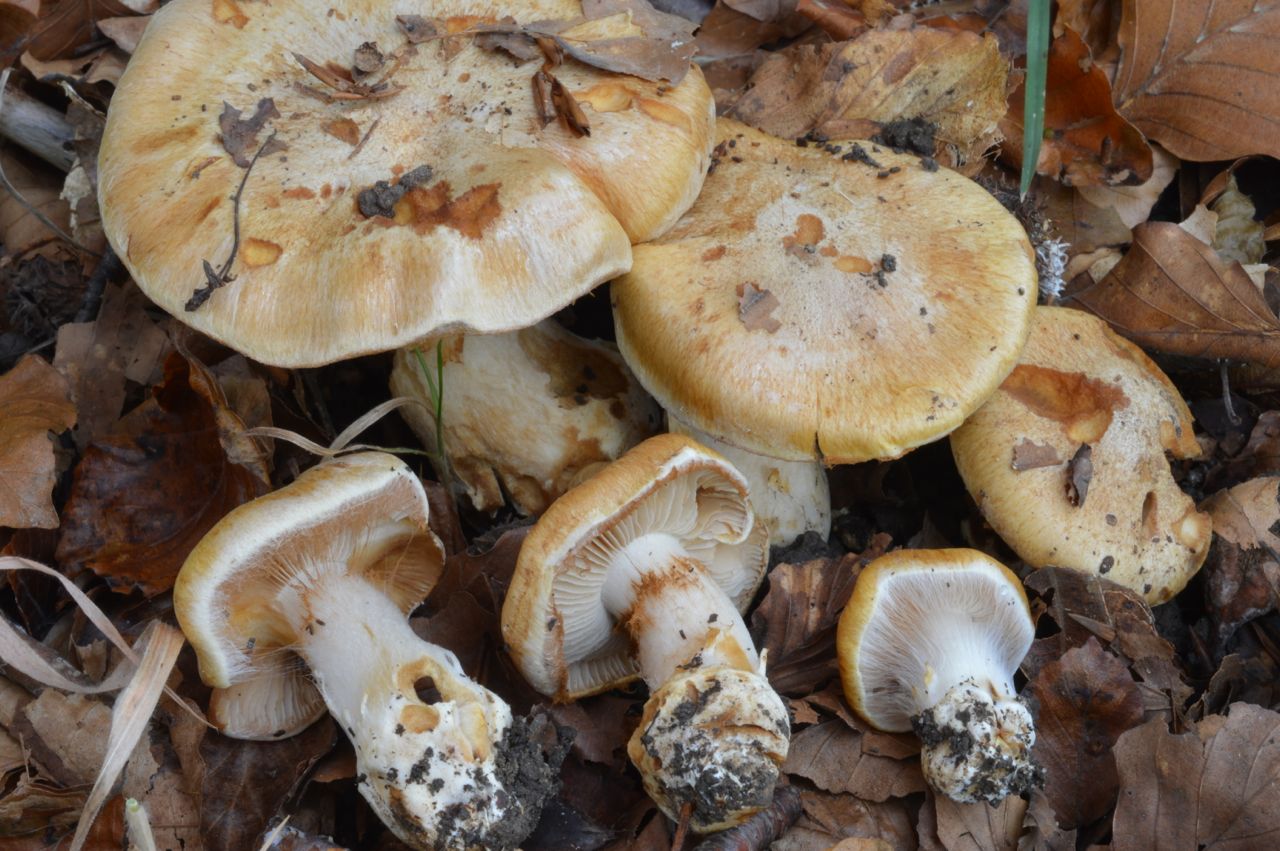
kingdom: Fungi
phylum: Basidiomycota
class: Agaricomycetes
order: Agaricales
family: Cortinariaceae
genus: Phlegmacium
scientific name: Phlegmacium subdecolorans
